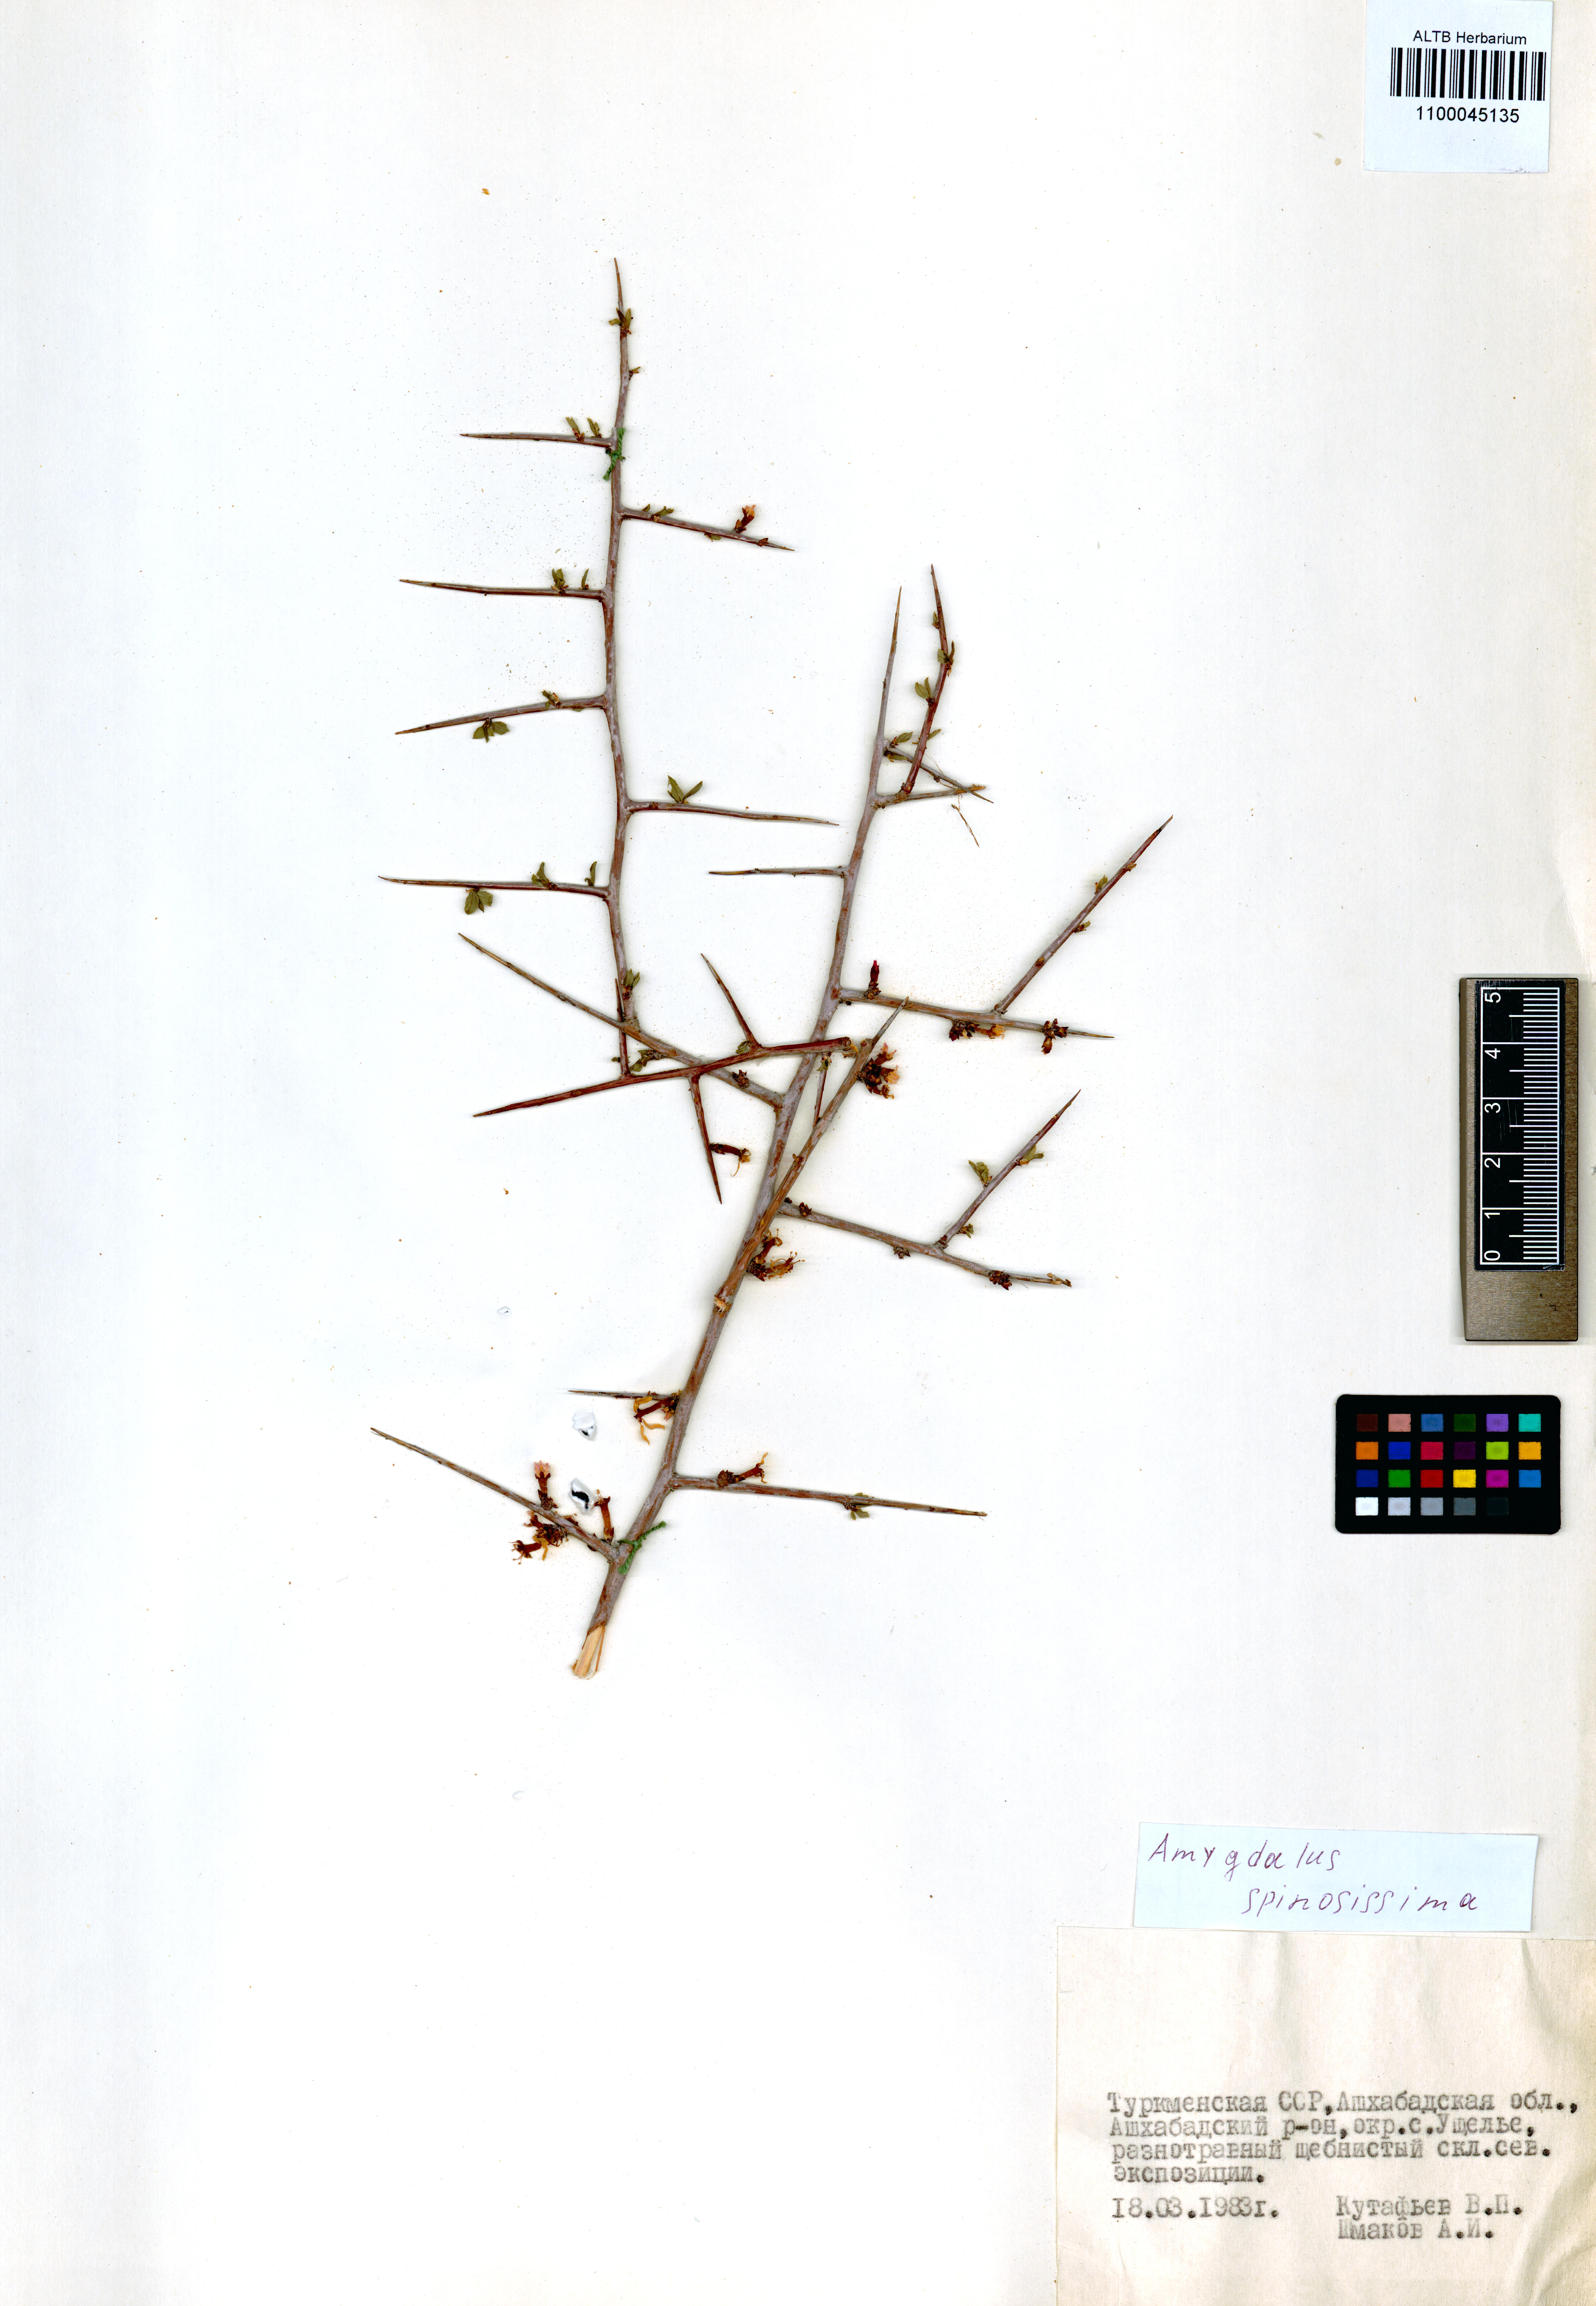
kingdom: Plantae
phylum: Tracheophyta
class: Magnoliopsida
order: Rosales
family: Rosaceae
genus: Prunus
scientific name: Prunus spinosissima
